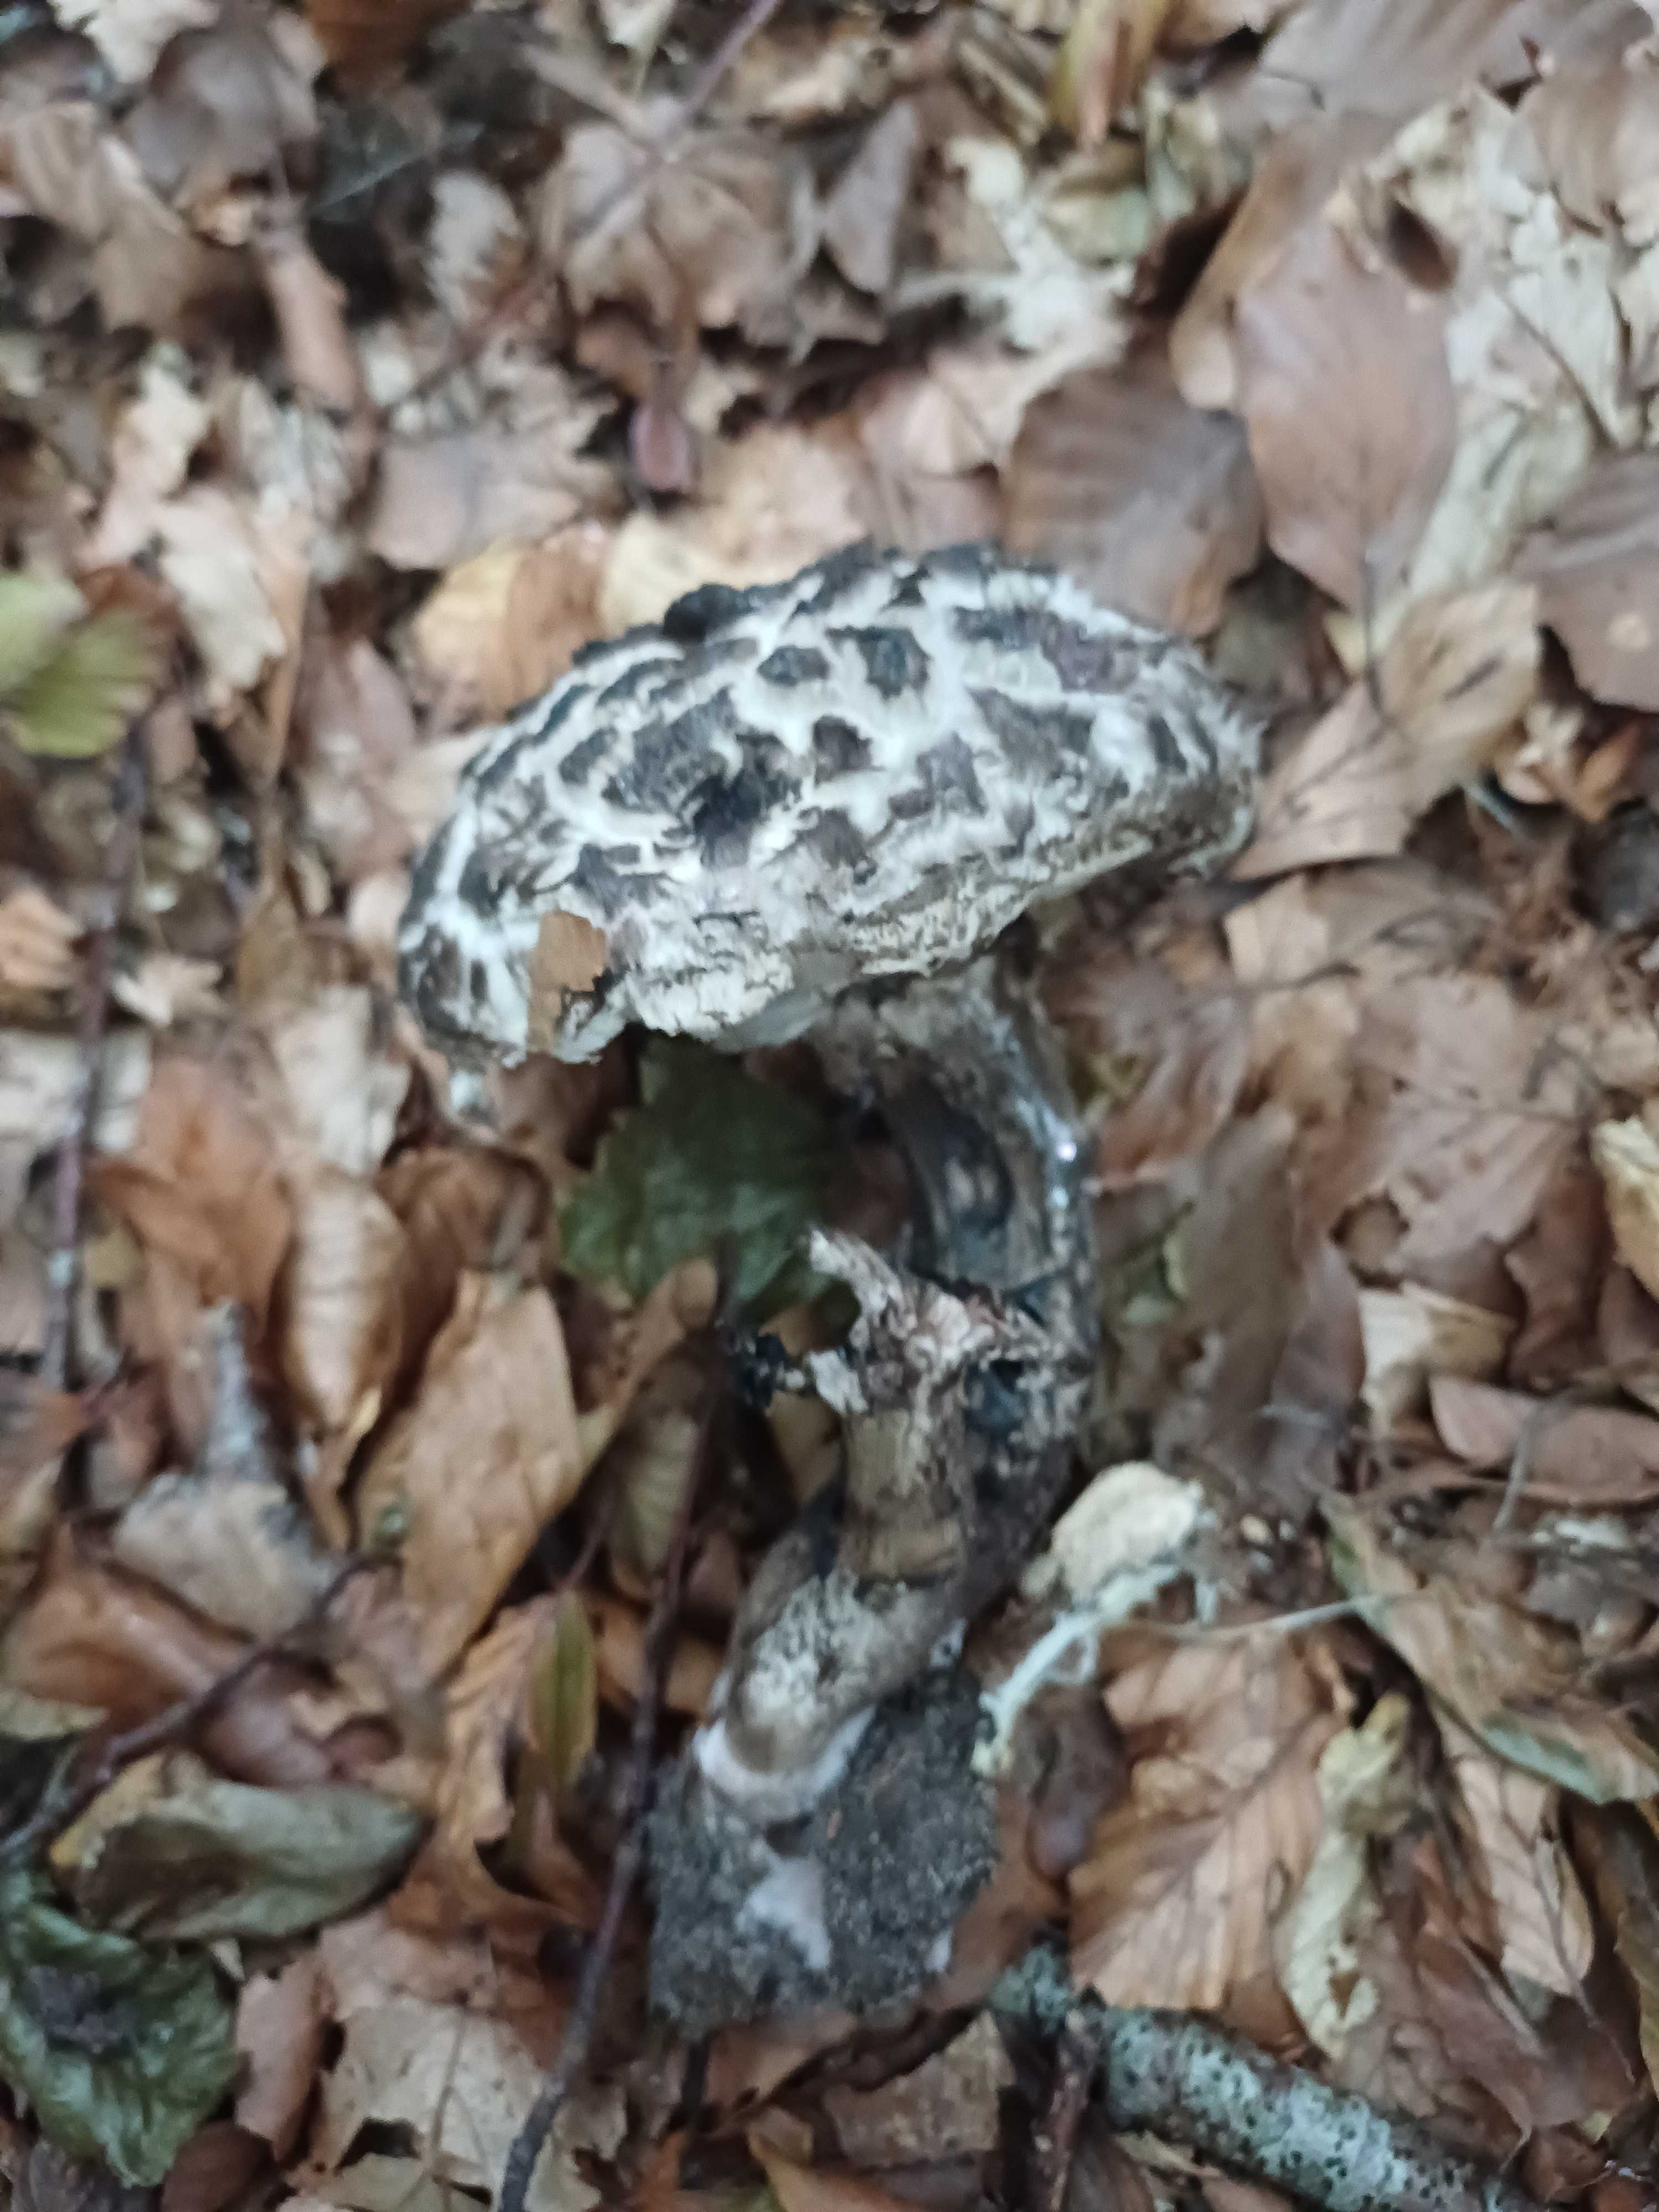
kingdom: Fungi
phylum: Basidiomycota
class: Agaricomycetes
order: Boletales
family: Boletaceae
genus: Strobilomyces
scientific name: Strobilomyces strobilaceus
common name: koglerørhat
